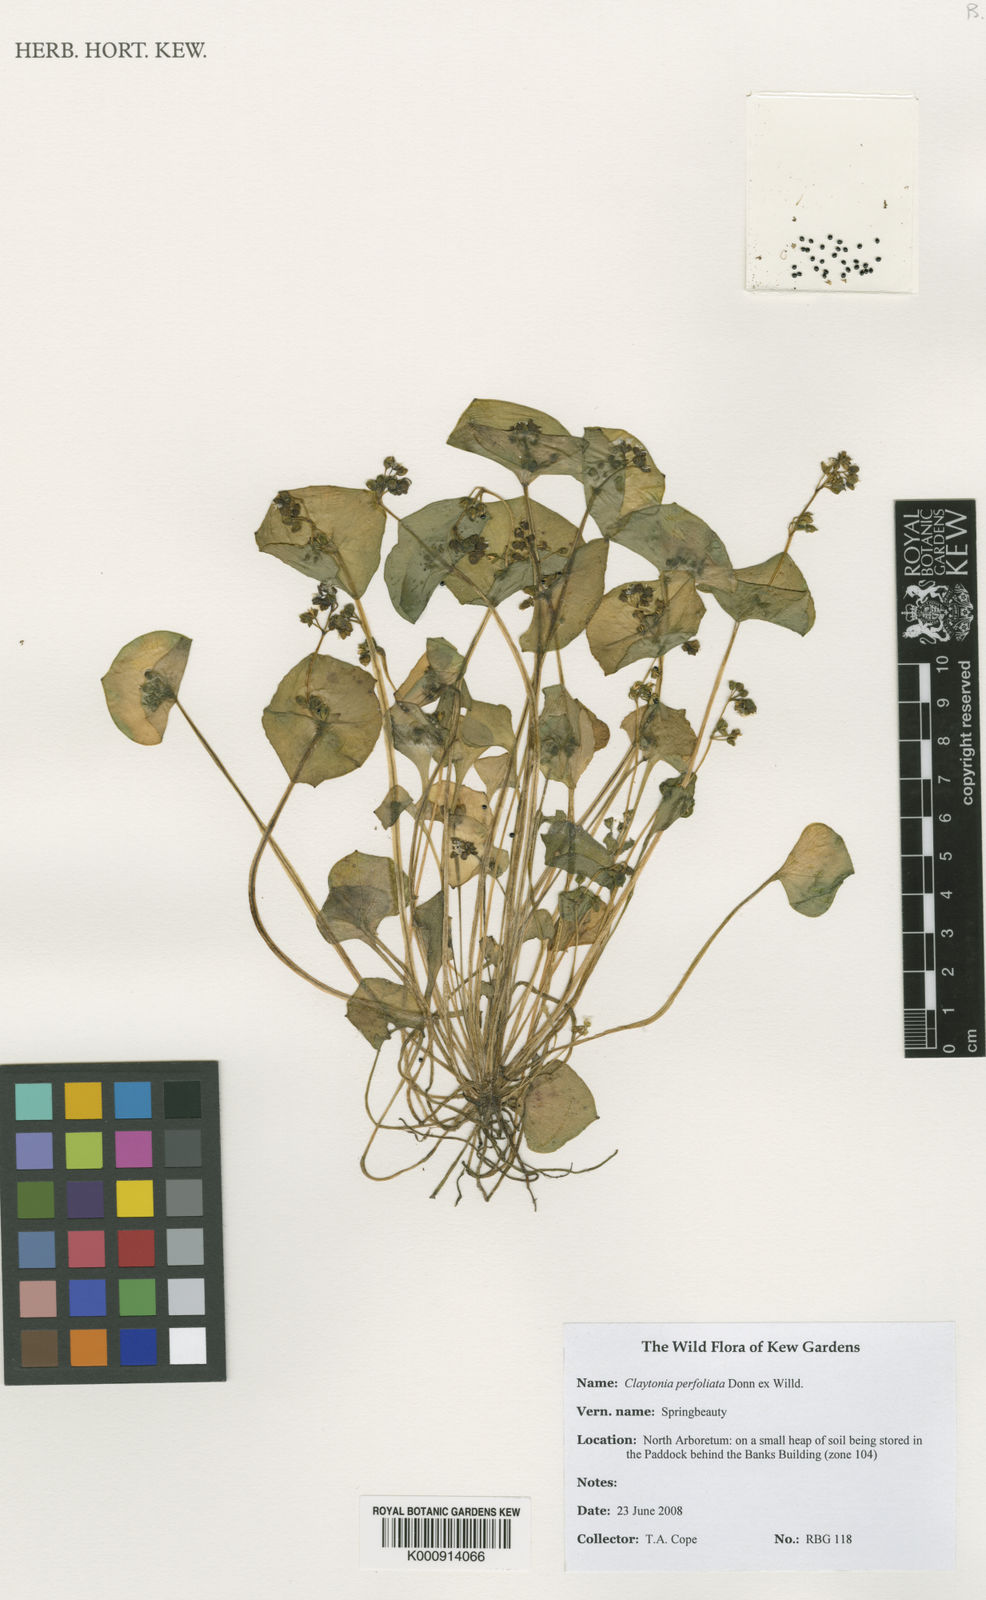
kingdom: Plantae
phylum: Tracheophyta
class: Magnoliopsida
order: Caryophyllales
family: Montiaceae
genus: Claytonia
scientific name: Claytonia perfoliata
